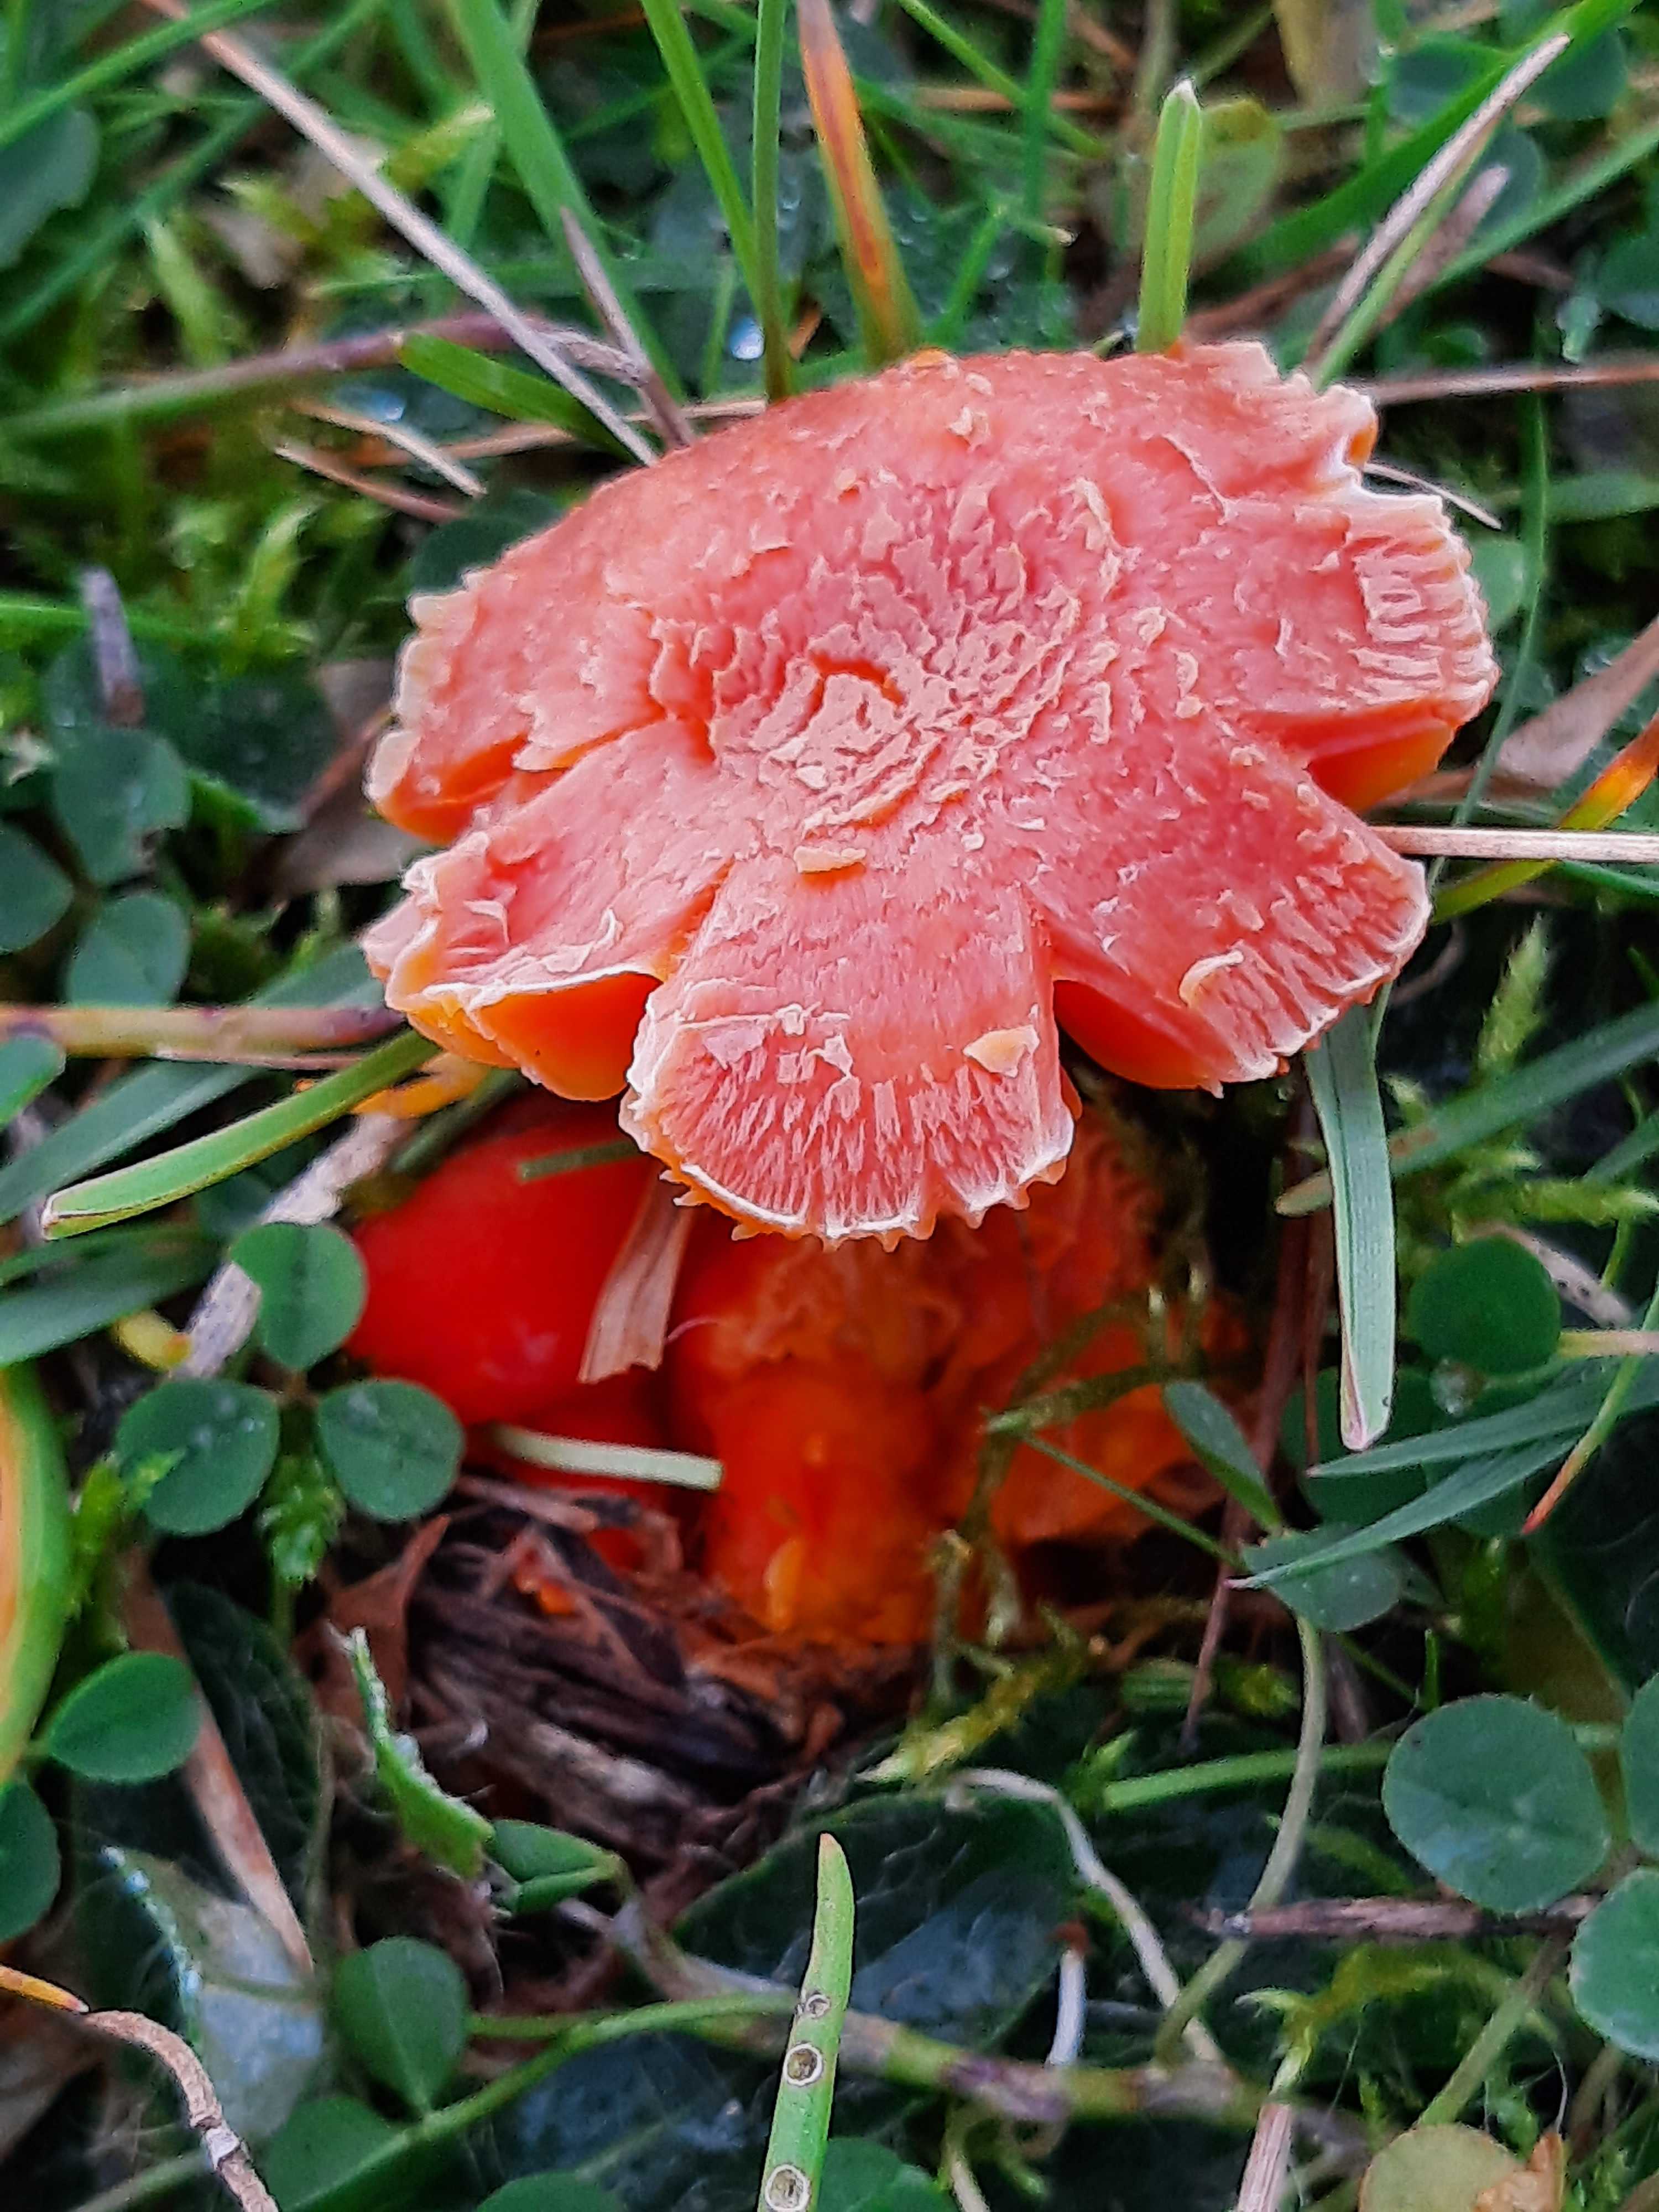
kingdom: Fungi
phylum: Basidiomycota
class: Agaricomycetes
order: Agaricales
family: Hygrophoraceae
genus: Hygrocybe
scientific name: Hygrocybe miniata
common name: mønje-vokshat
